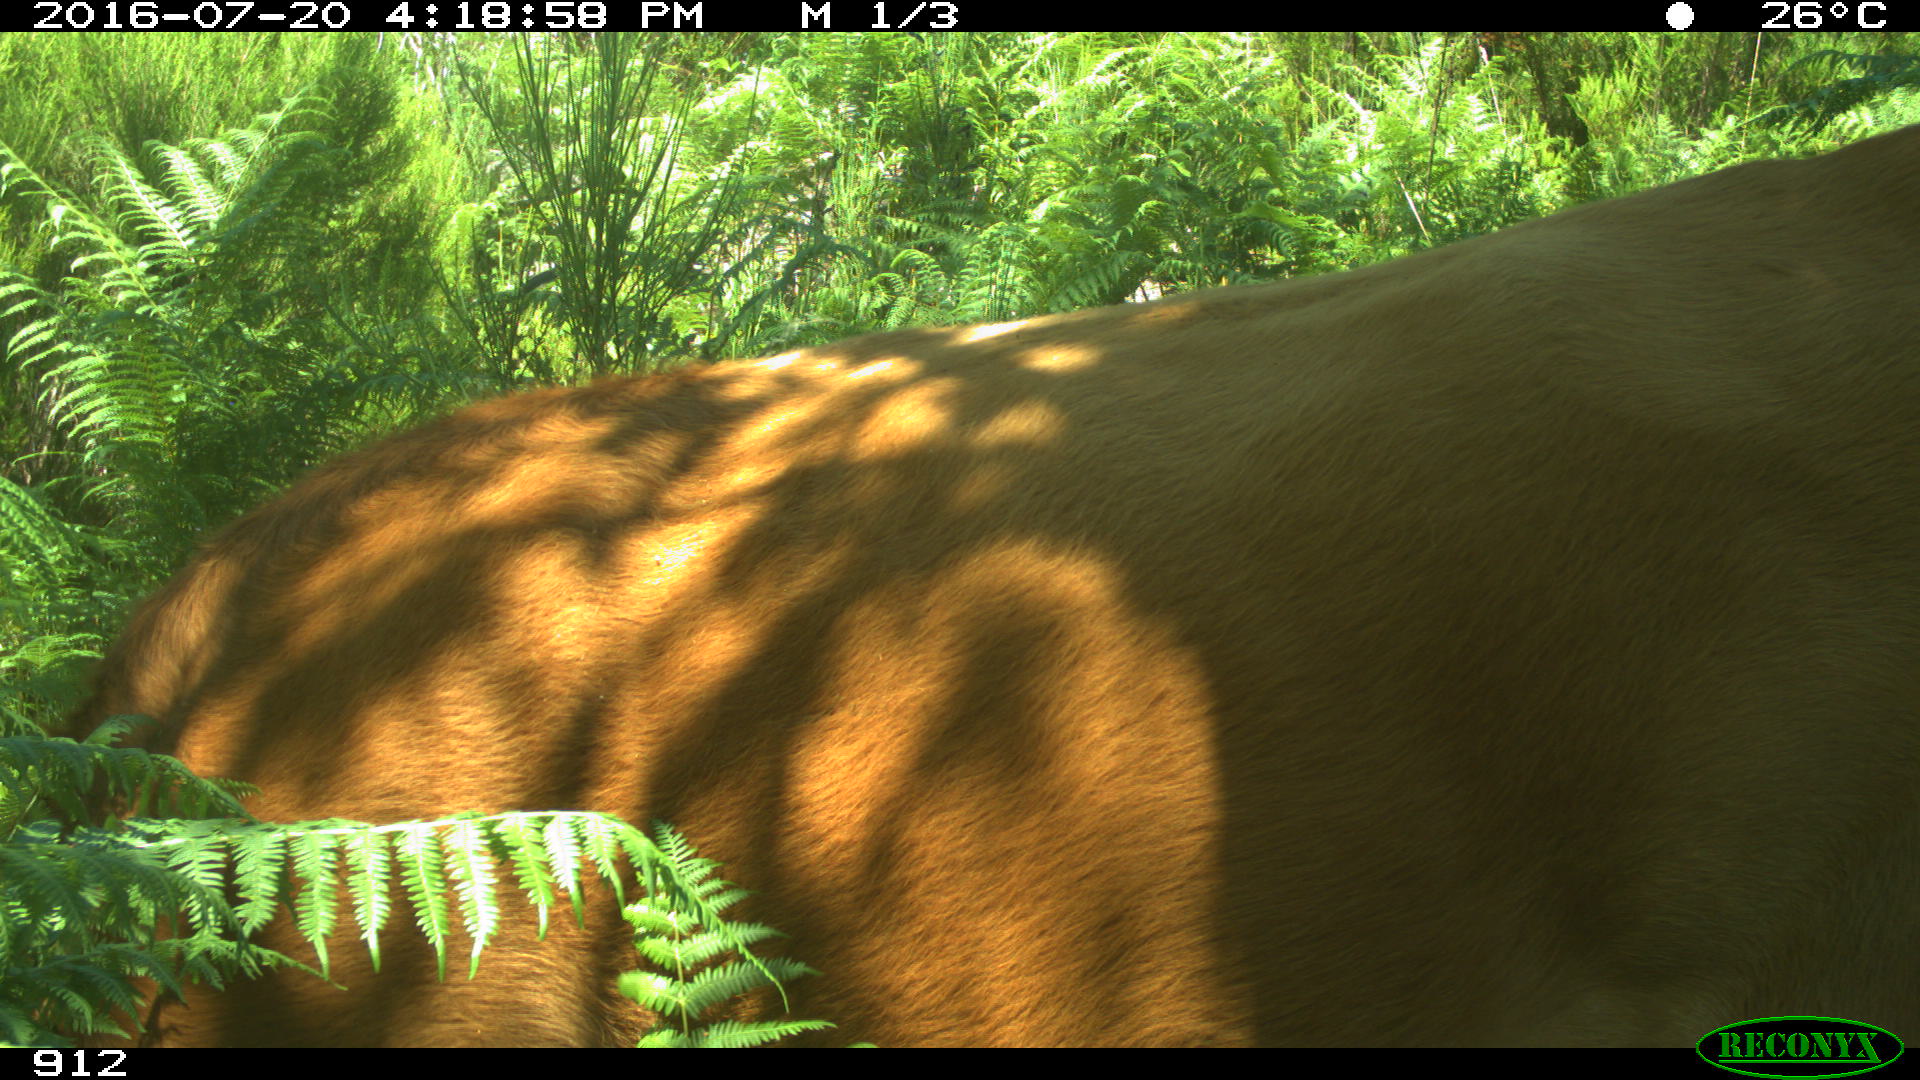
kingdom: Animalia
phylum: Chordata
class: Mammalia
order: Artiodactyla
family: Bovidae
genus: Bos
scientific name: Bos taurus
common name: Domesticated cattle
